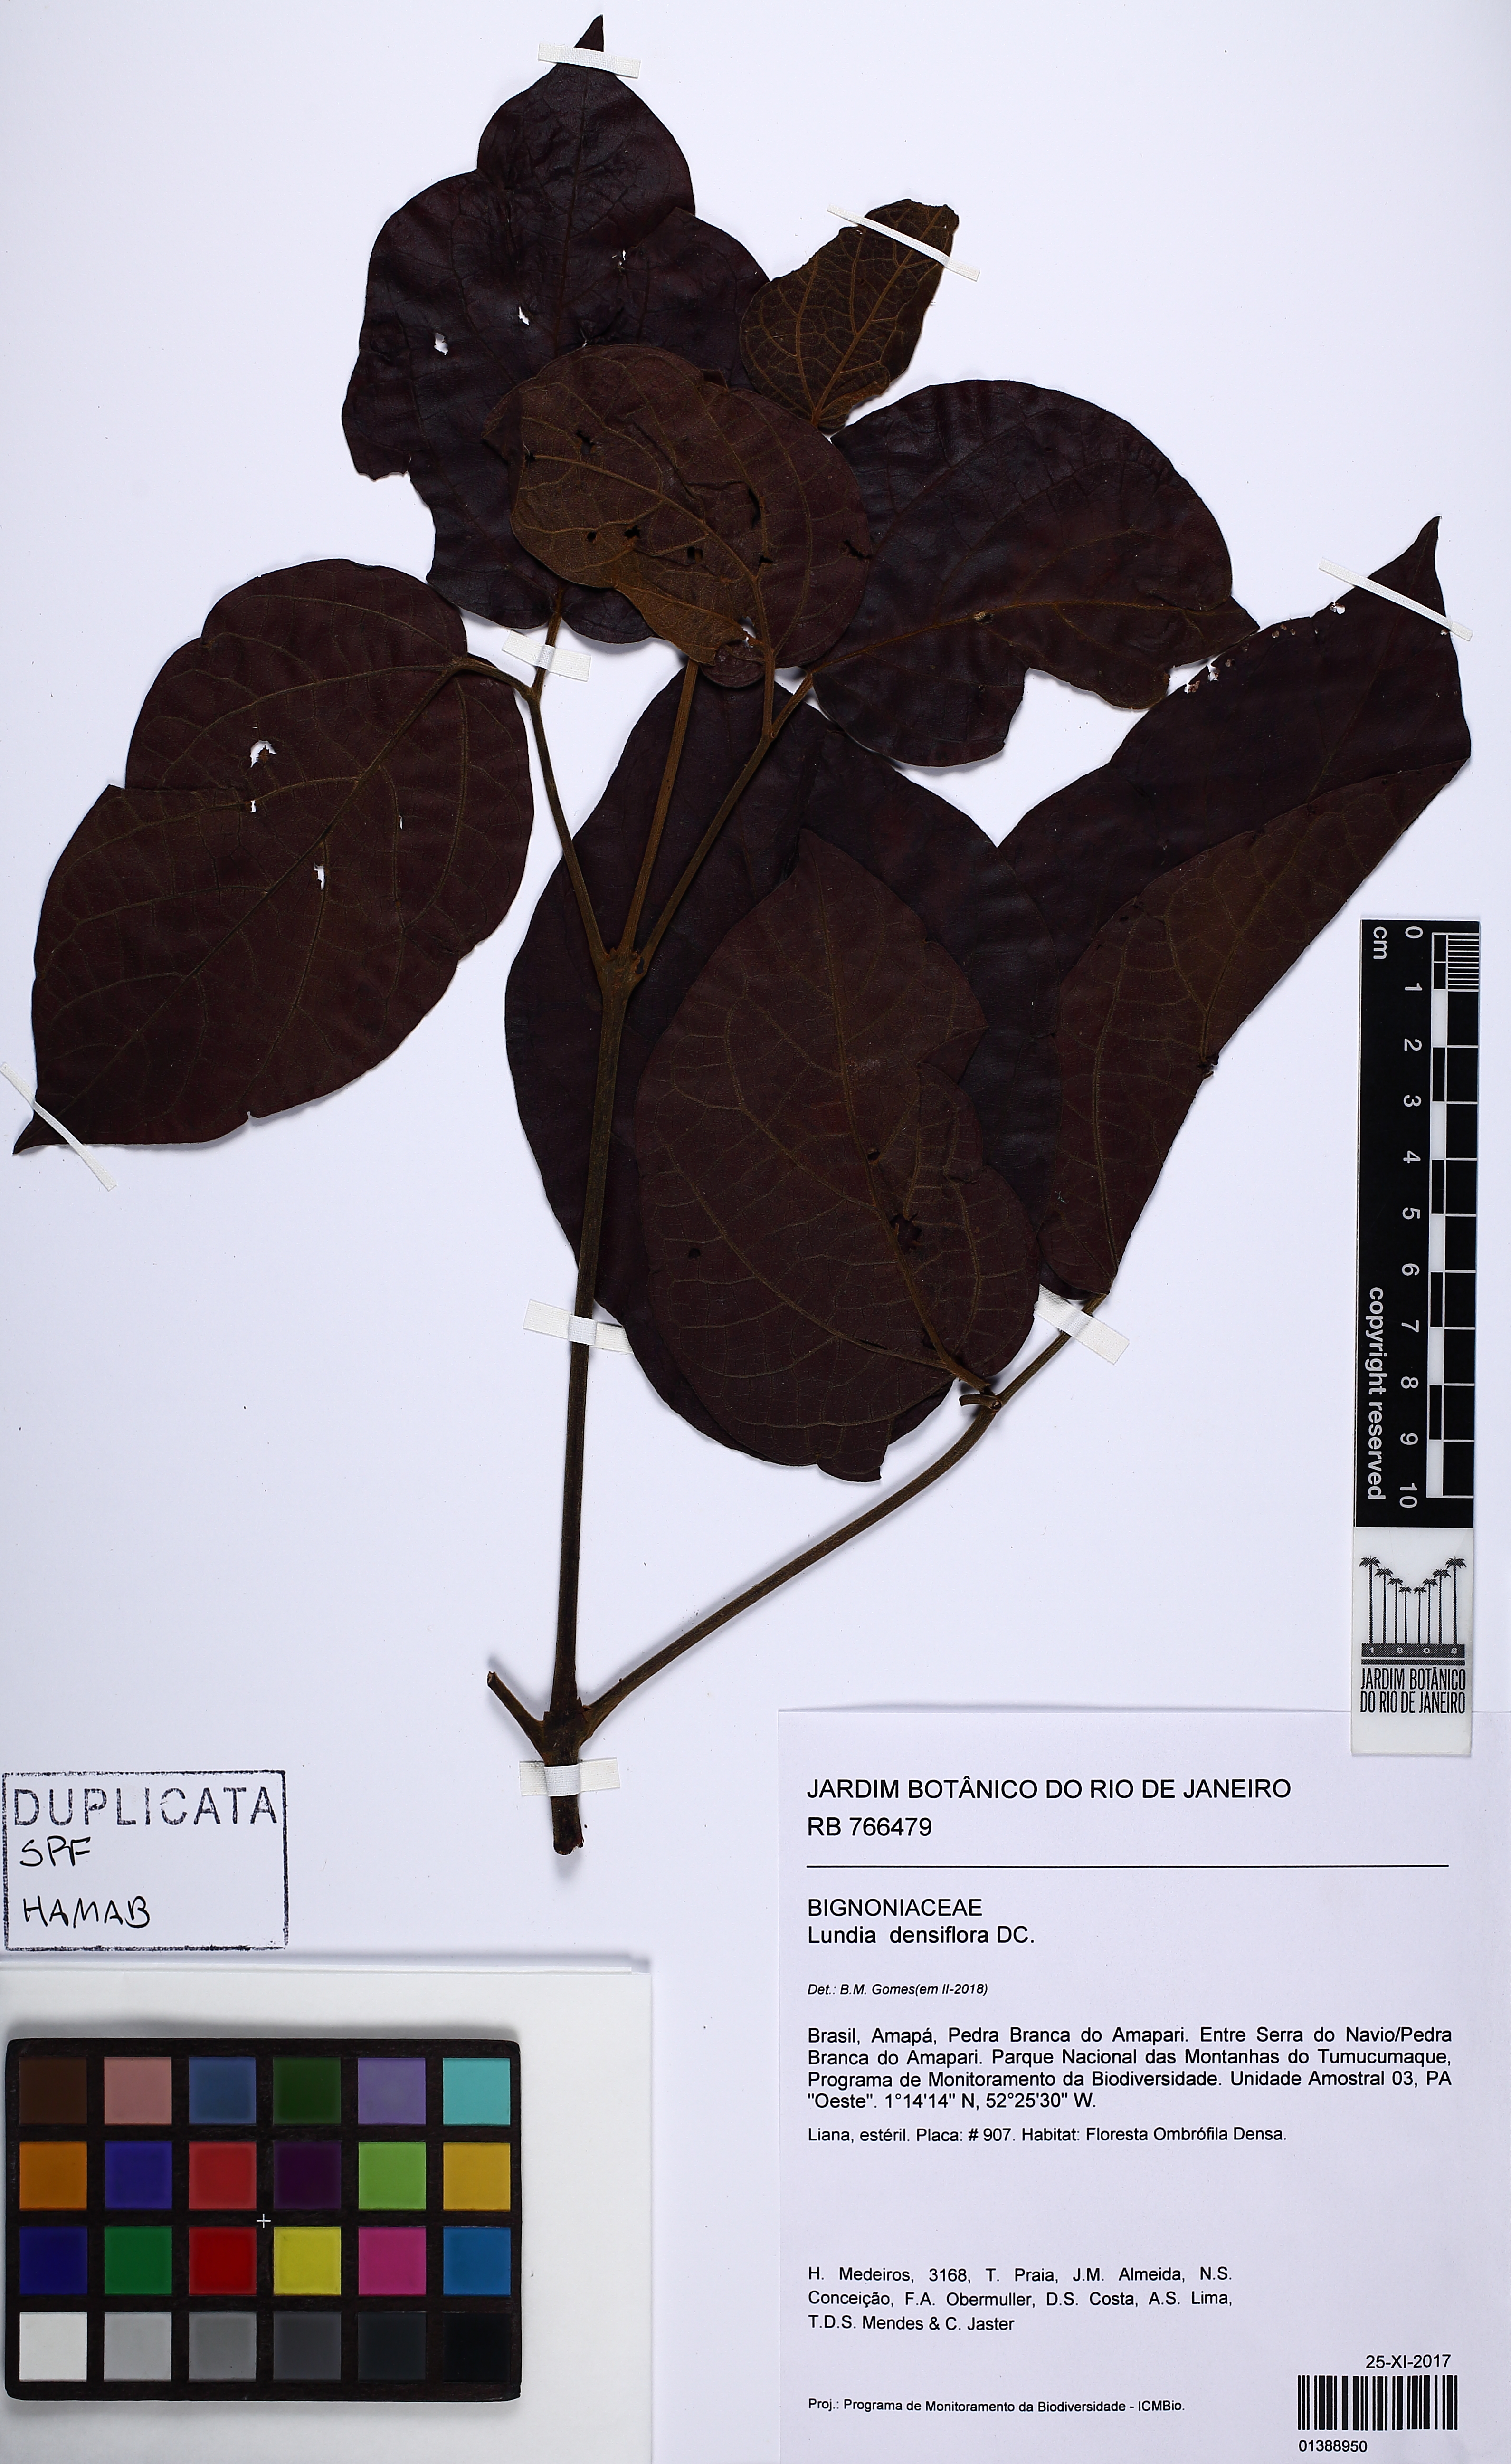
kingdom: Plantae
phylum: Tracheophyta
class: Magnoliopsida
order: Lamiales
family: Bignoniaceae
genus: Lundia
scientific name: Lundia densiflora
